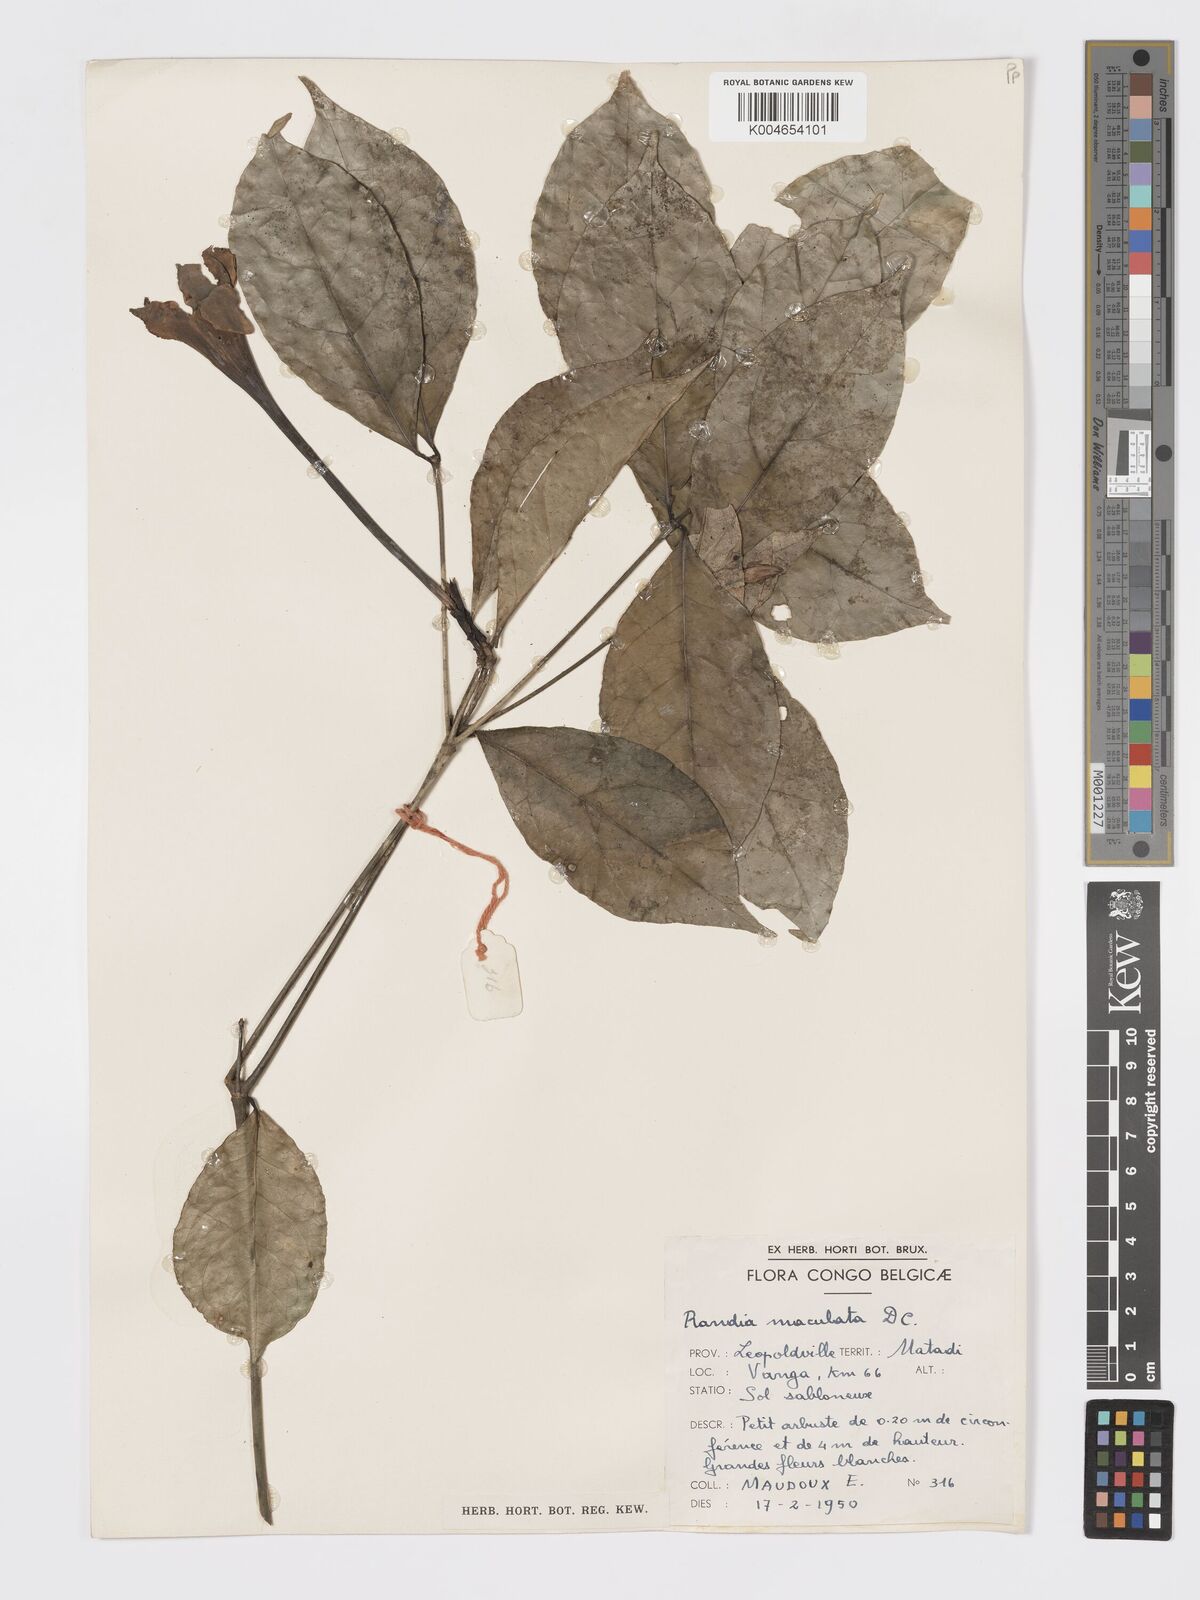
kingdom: Plantae
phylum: Tracheophyta
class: Magnoliopsida
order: Gentianales
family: Rubiaceae
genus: Rothmannia
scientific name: Rothmannia longiflora
